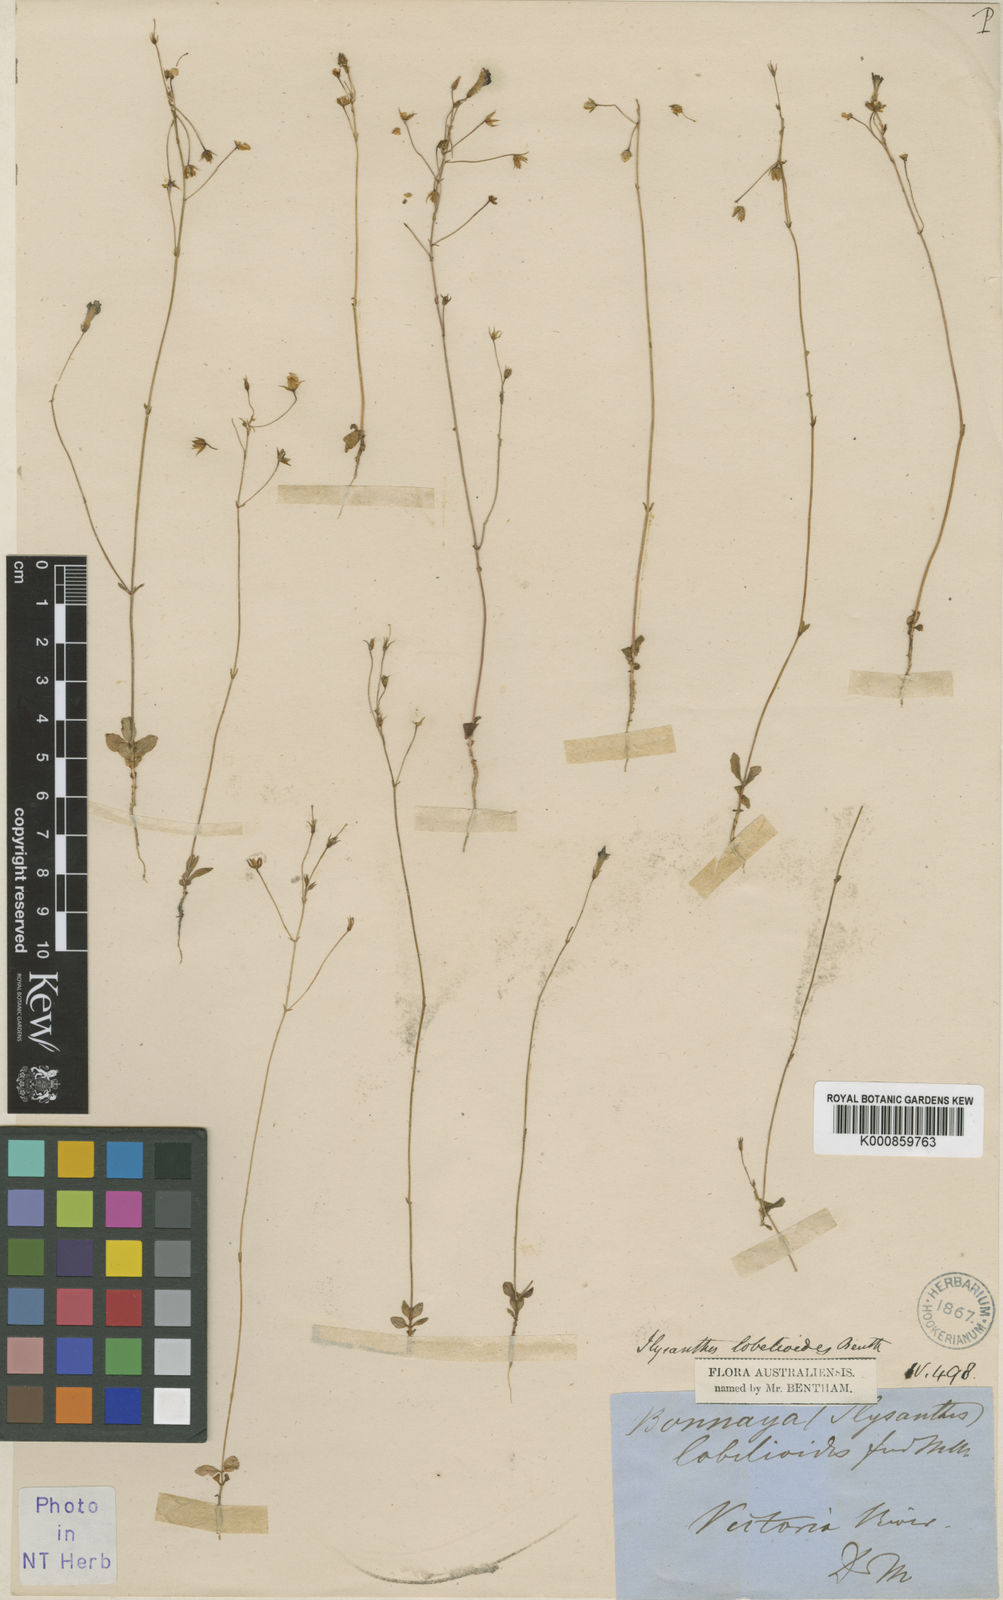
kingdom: Plantae
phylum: Tracheophyta
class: Magnoliopsida
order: Lamiales
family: Linderniaceae
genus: Vandellia
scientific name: Vandellia lobelioides
